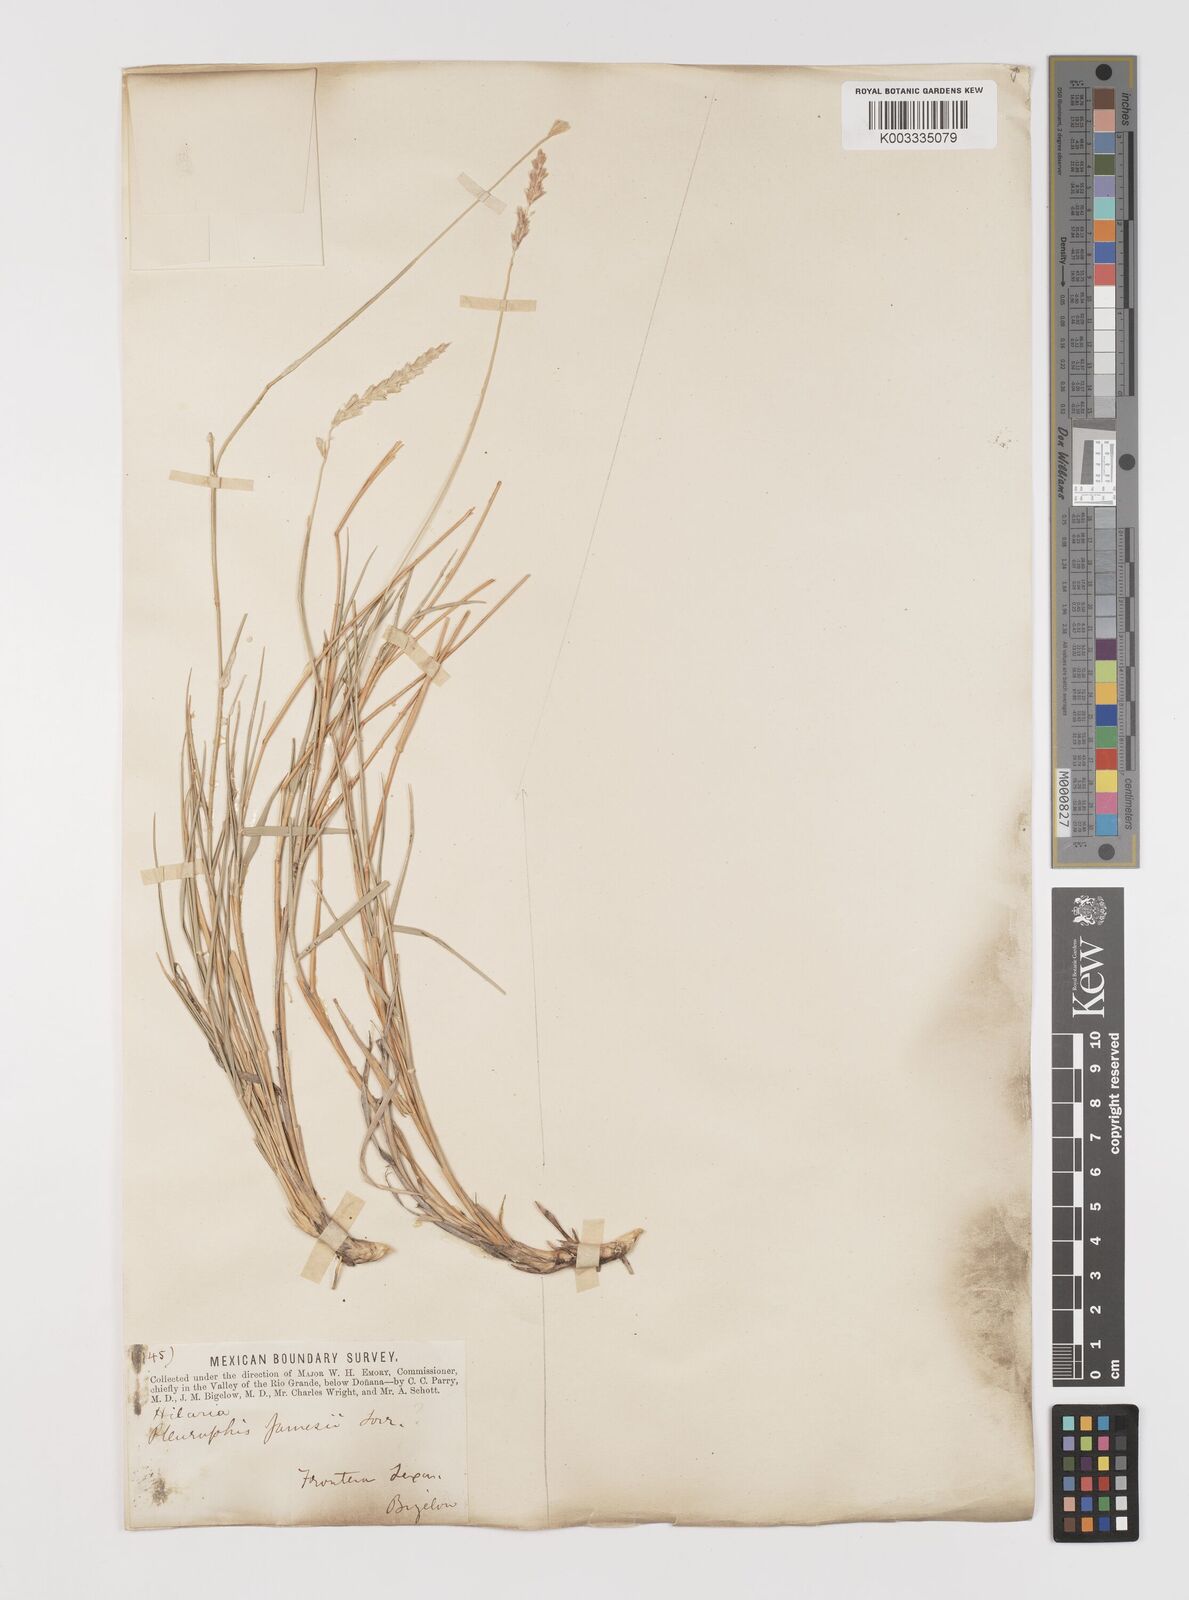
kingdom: Plantae
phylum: Tracheophyta
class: Liliopsida
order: Poales
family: Poaceae
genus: Hilaria
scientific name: Hilaria jamesii
